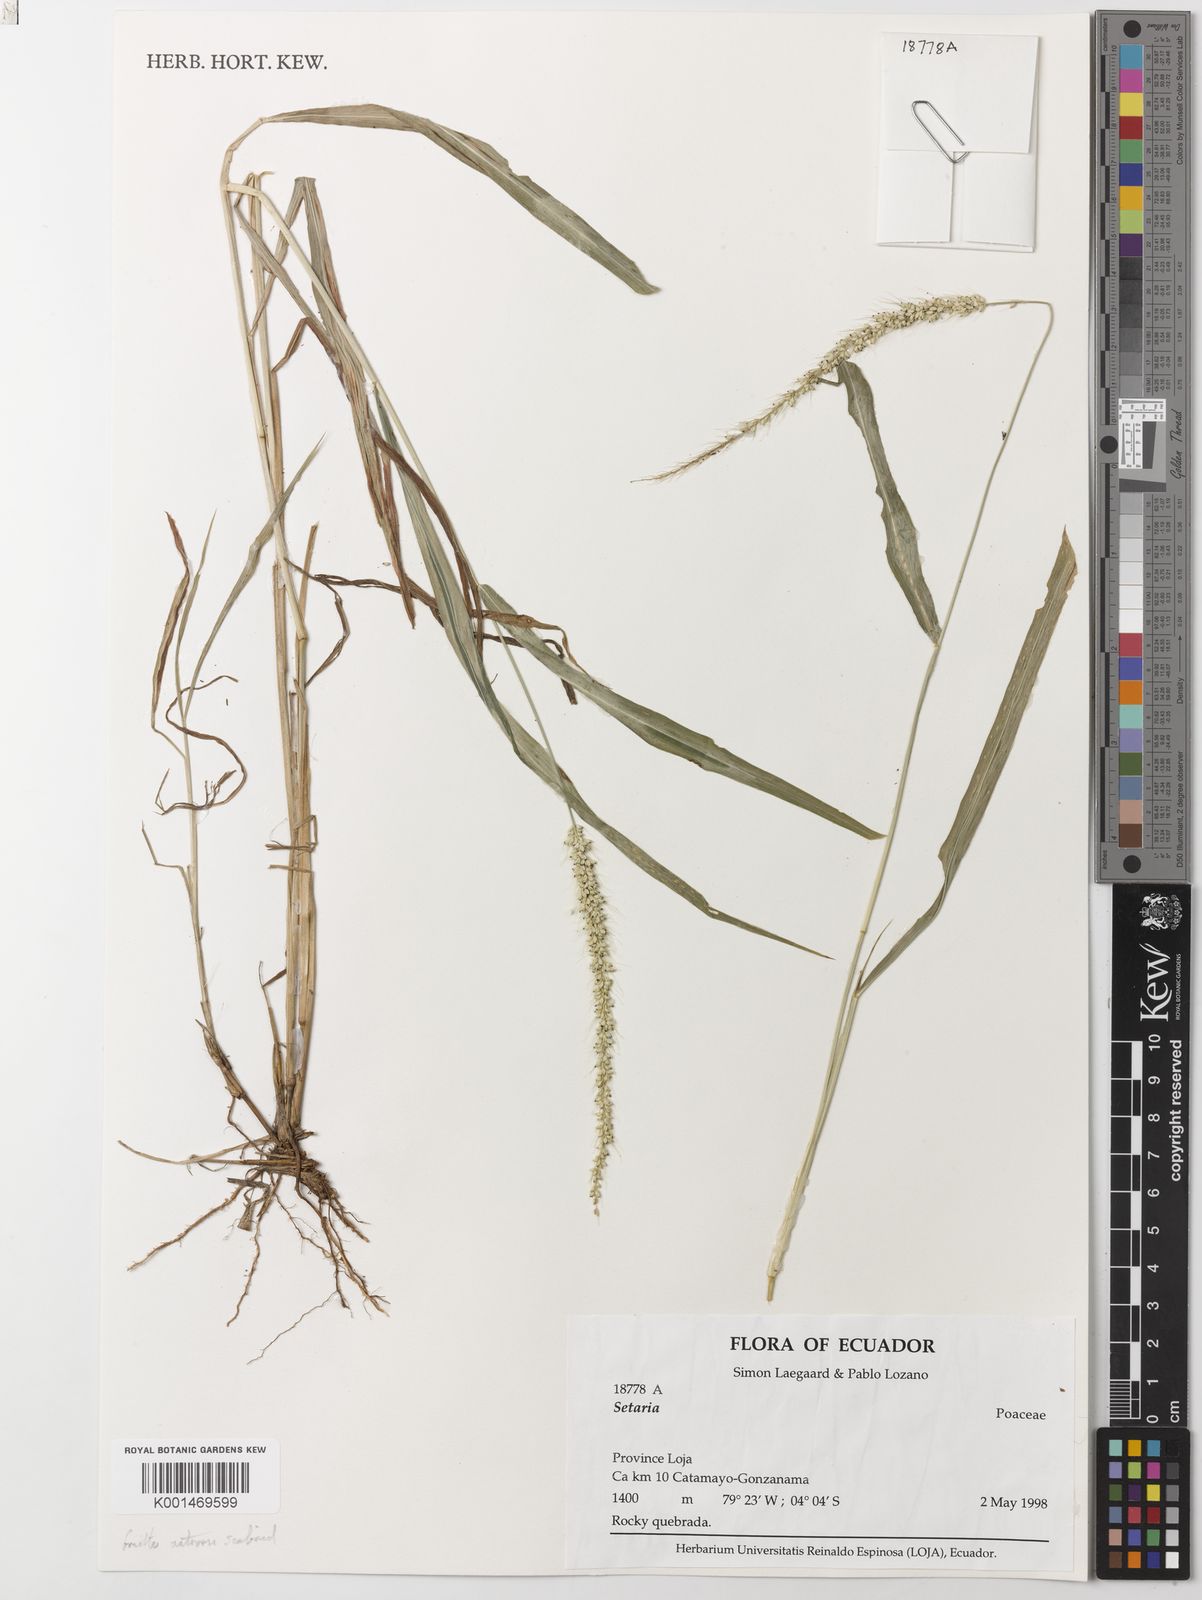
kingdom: Plantae
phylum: Tracheophyta
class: Liliopsida
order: Poales
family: Poaceae
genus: Setaria
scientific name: Setaria vulpiseta
